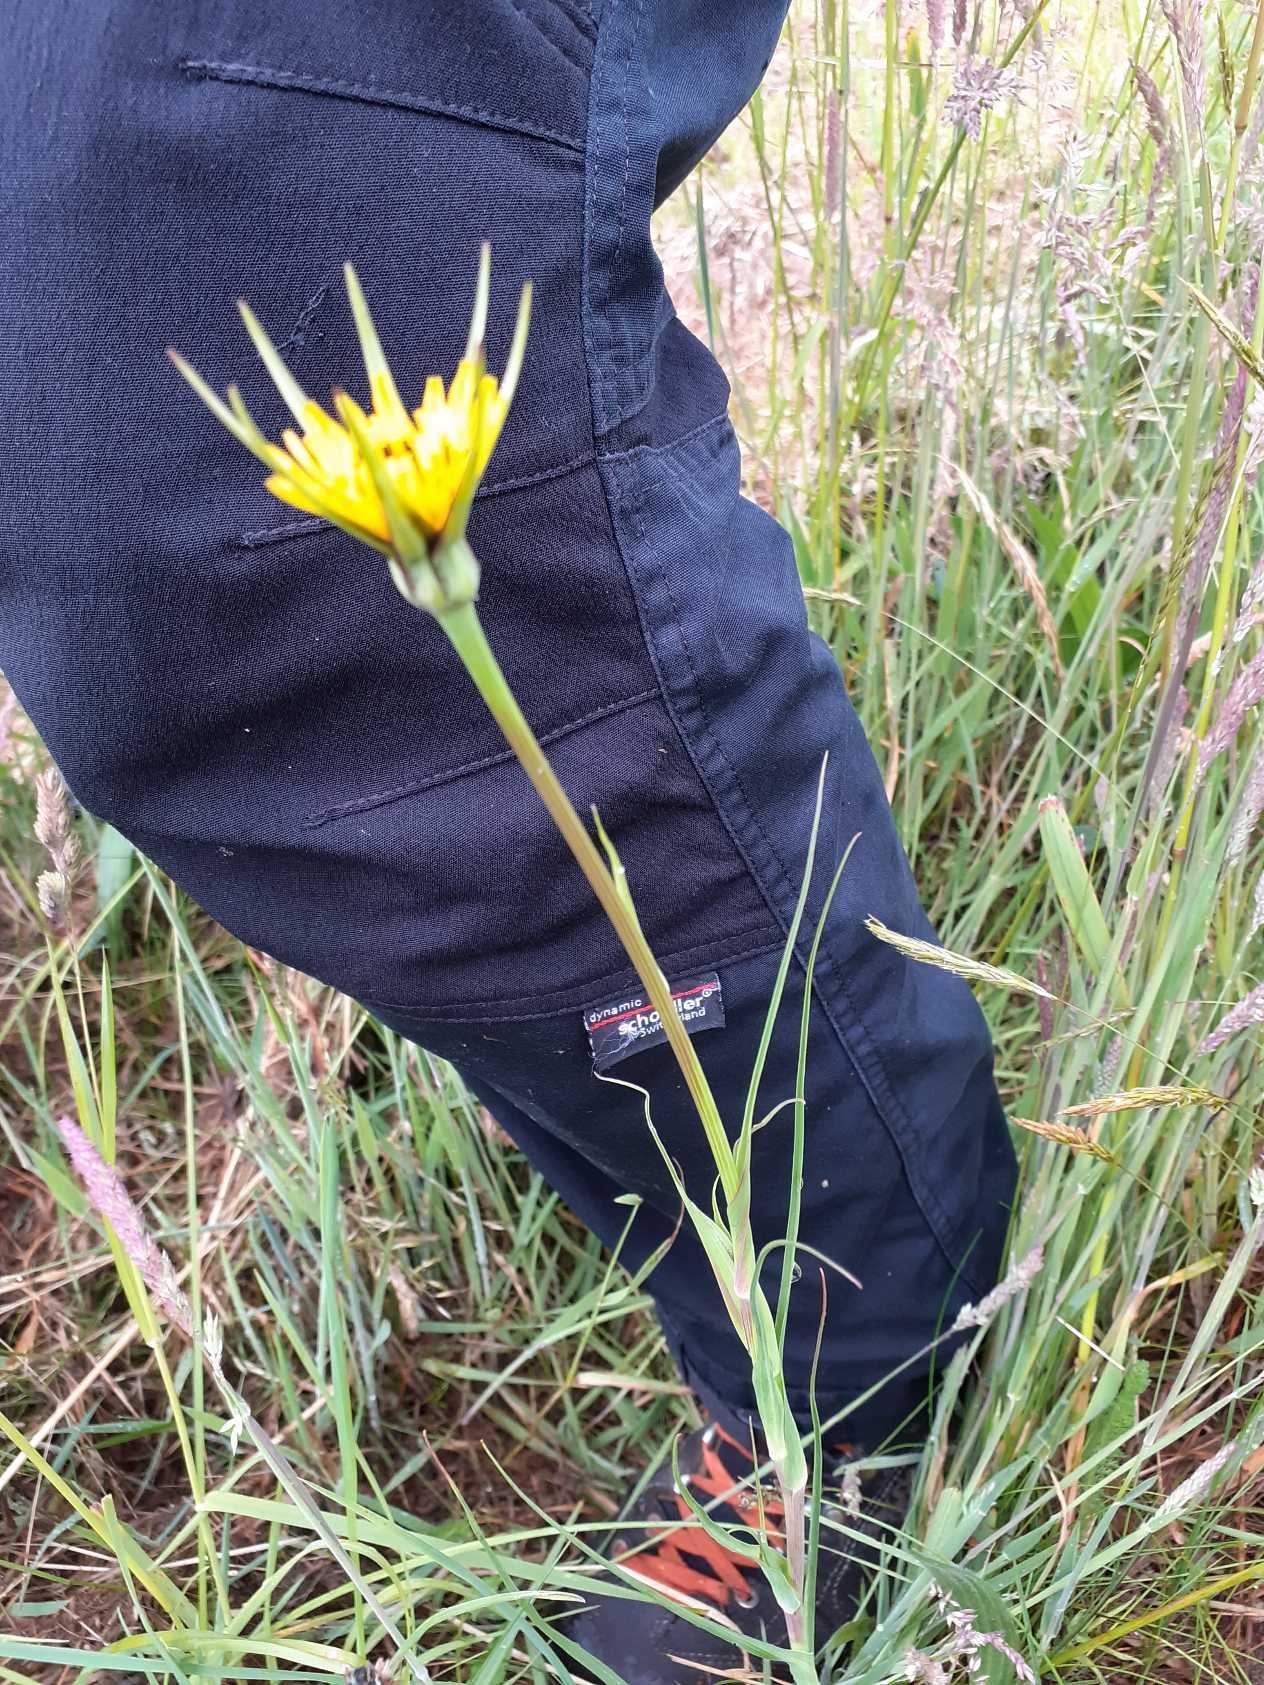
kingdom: Plantae
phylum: Tracheophyta
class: Magnoliopsida
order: Asterales
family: Asteraceae
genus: Tragopogon
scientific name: Tragopogon minor
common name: Småkronet gedeskæg
